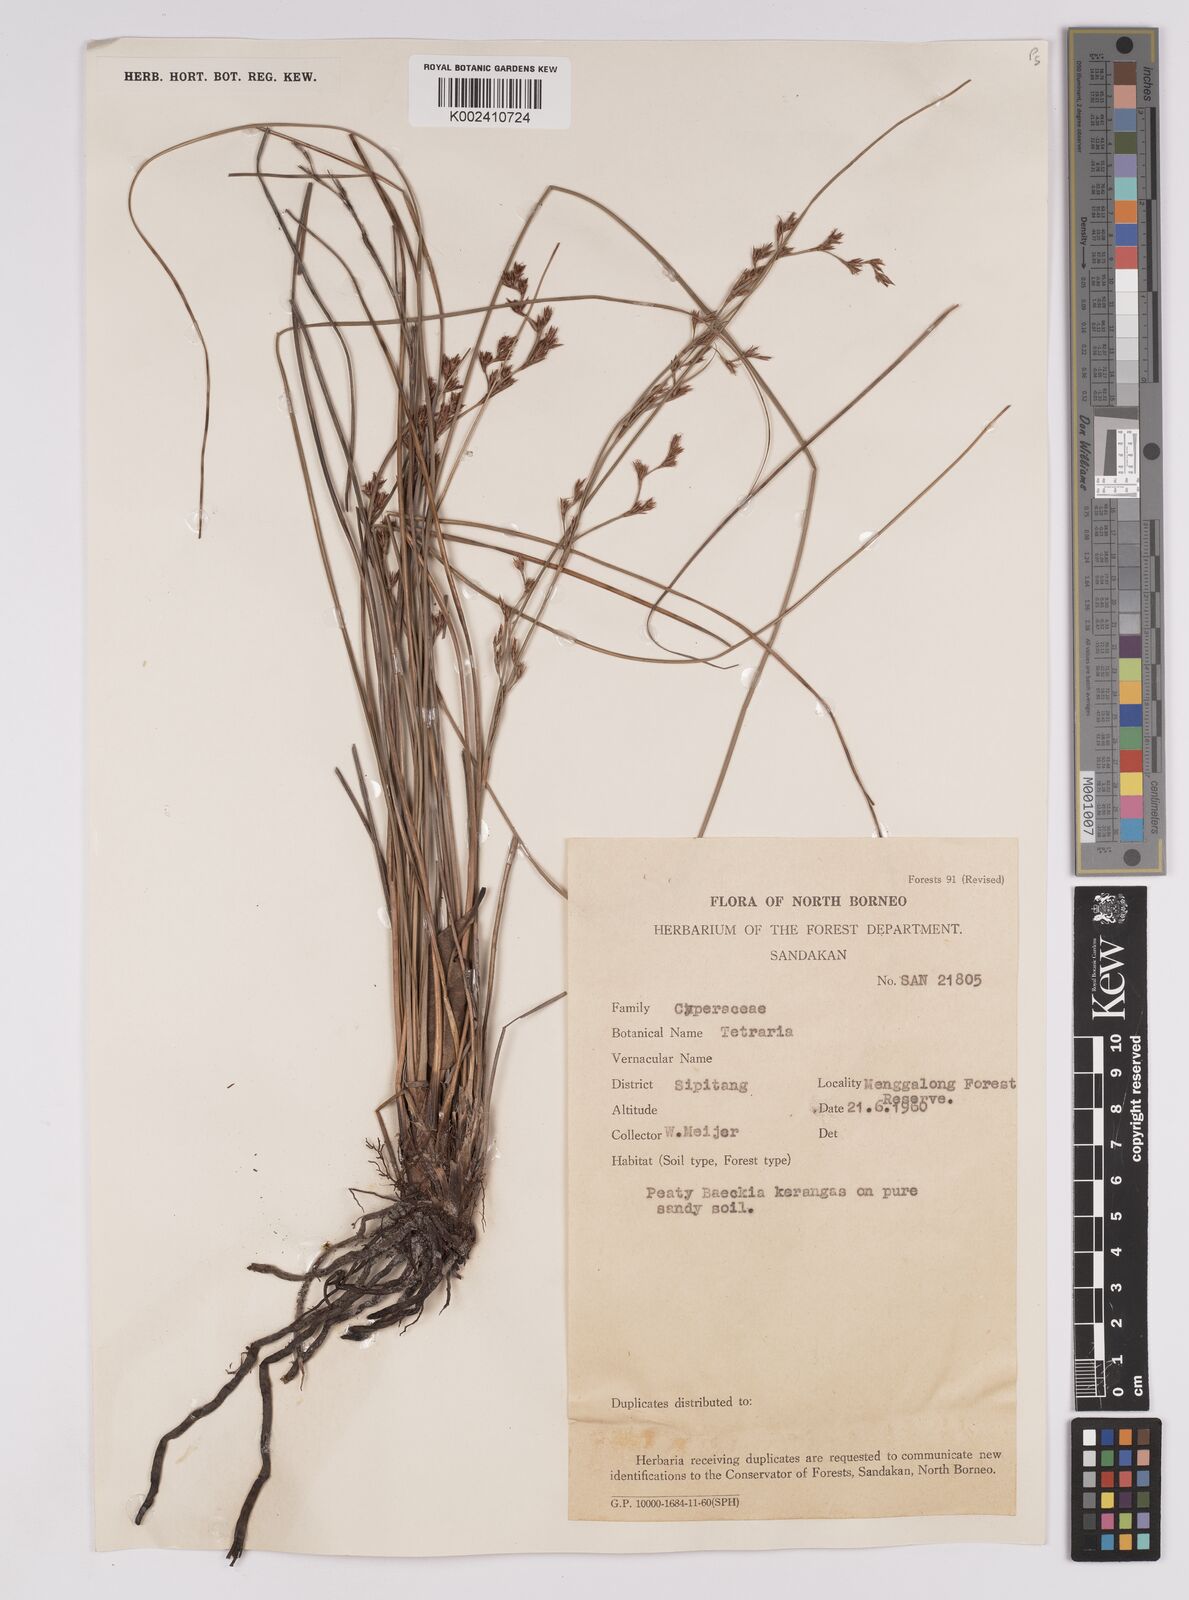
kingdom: Plantae
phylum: Tracheophyta
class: Liliopsida
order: Poales
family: Cyperaceae
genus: Anthelepis
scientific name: Anthelepis undulata
